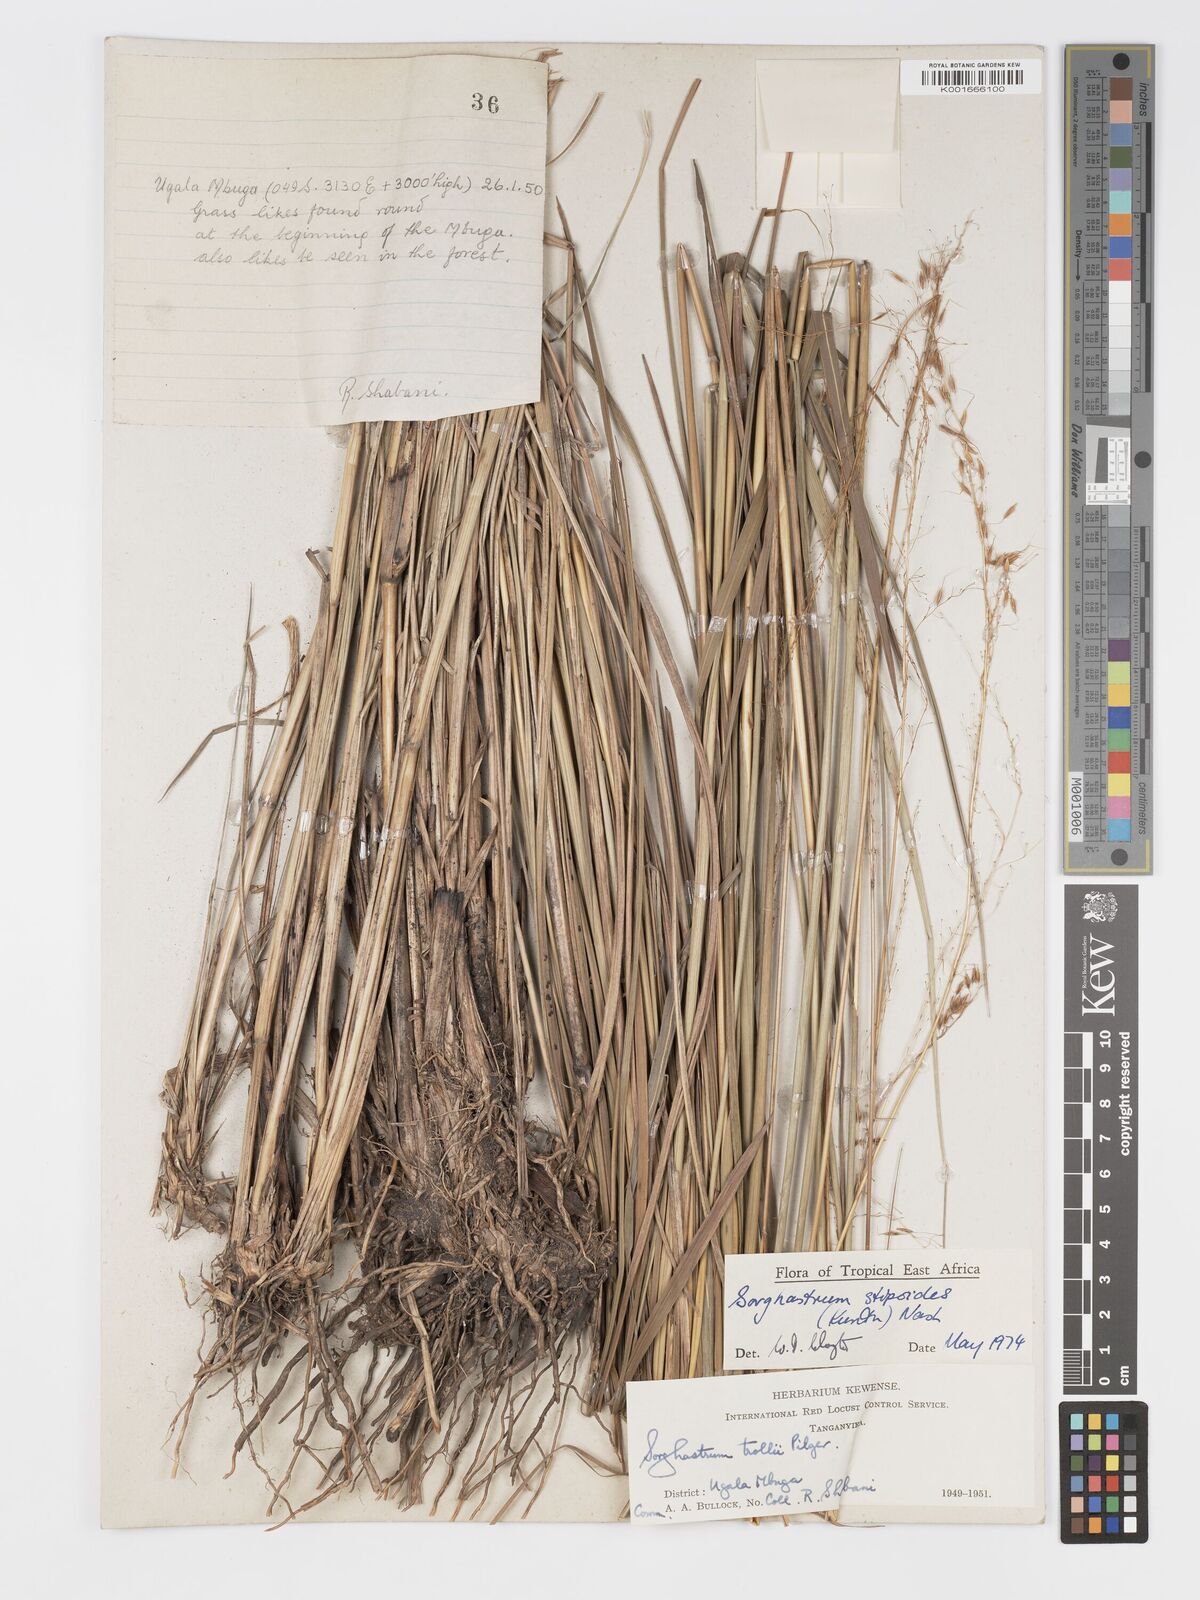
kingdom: Plantae
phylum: Tracheophyta
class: Liliopsida
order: Poales
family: Poaceae
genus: Sorghastrum
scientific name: Sorghastrum stipoides
